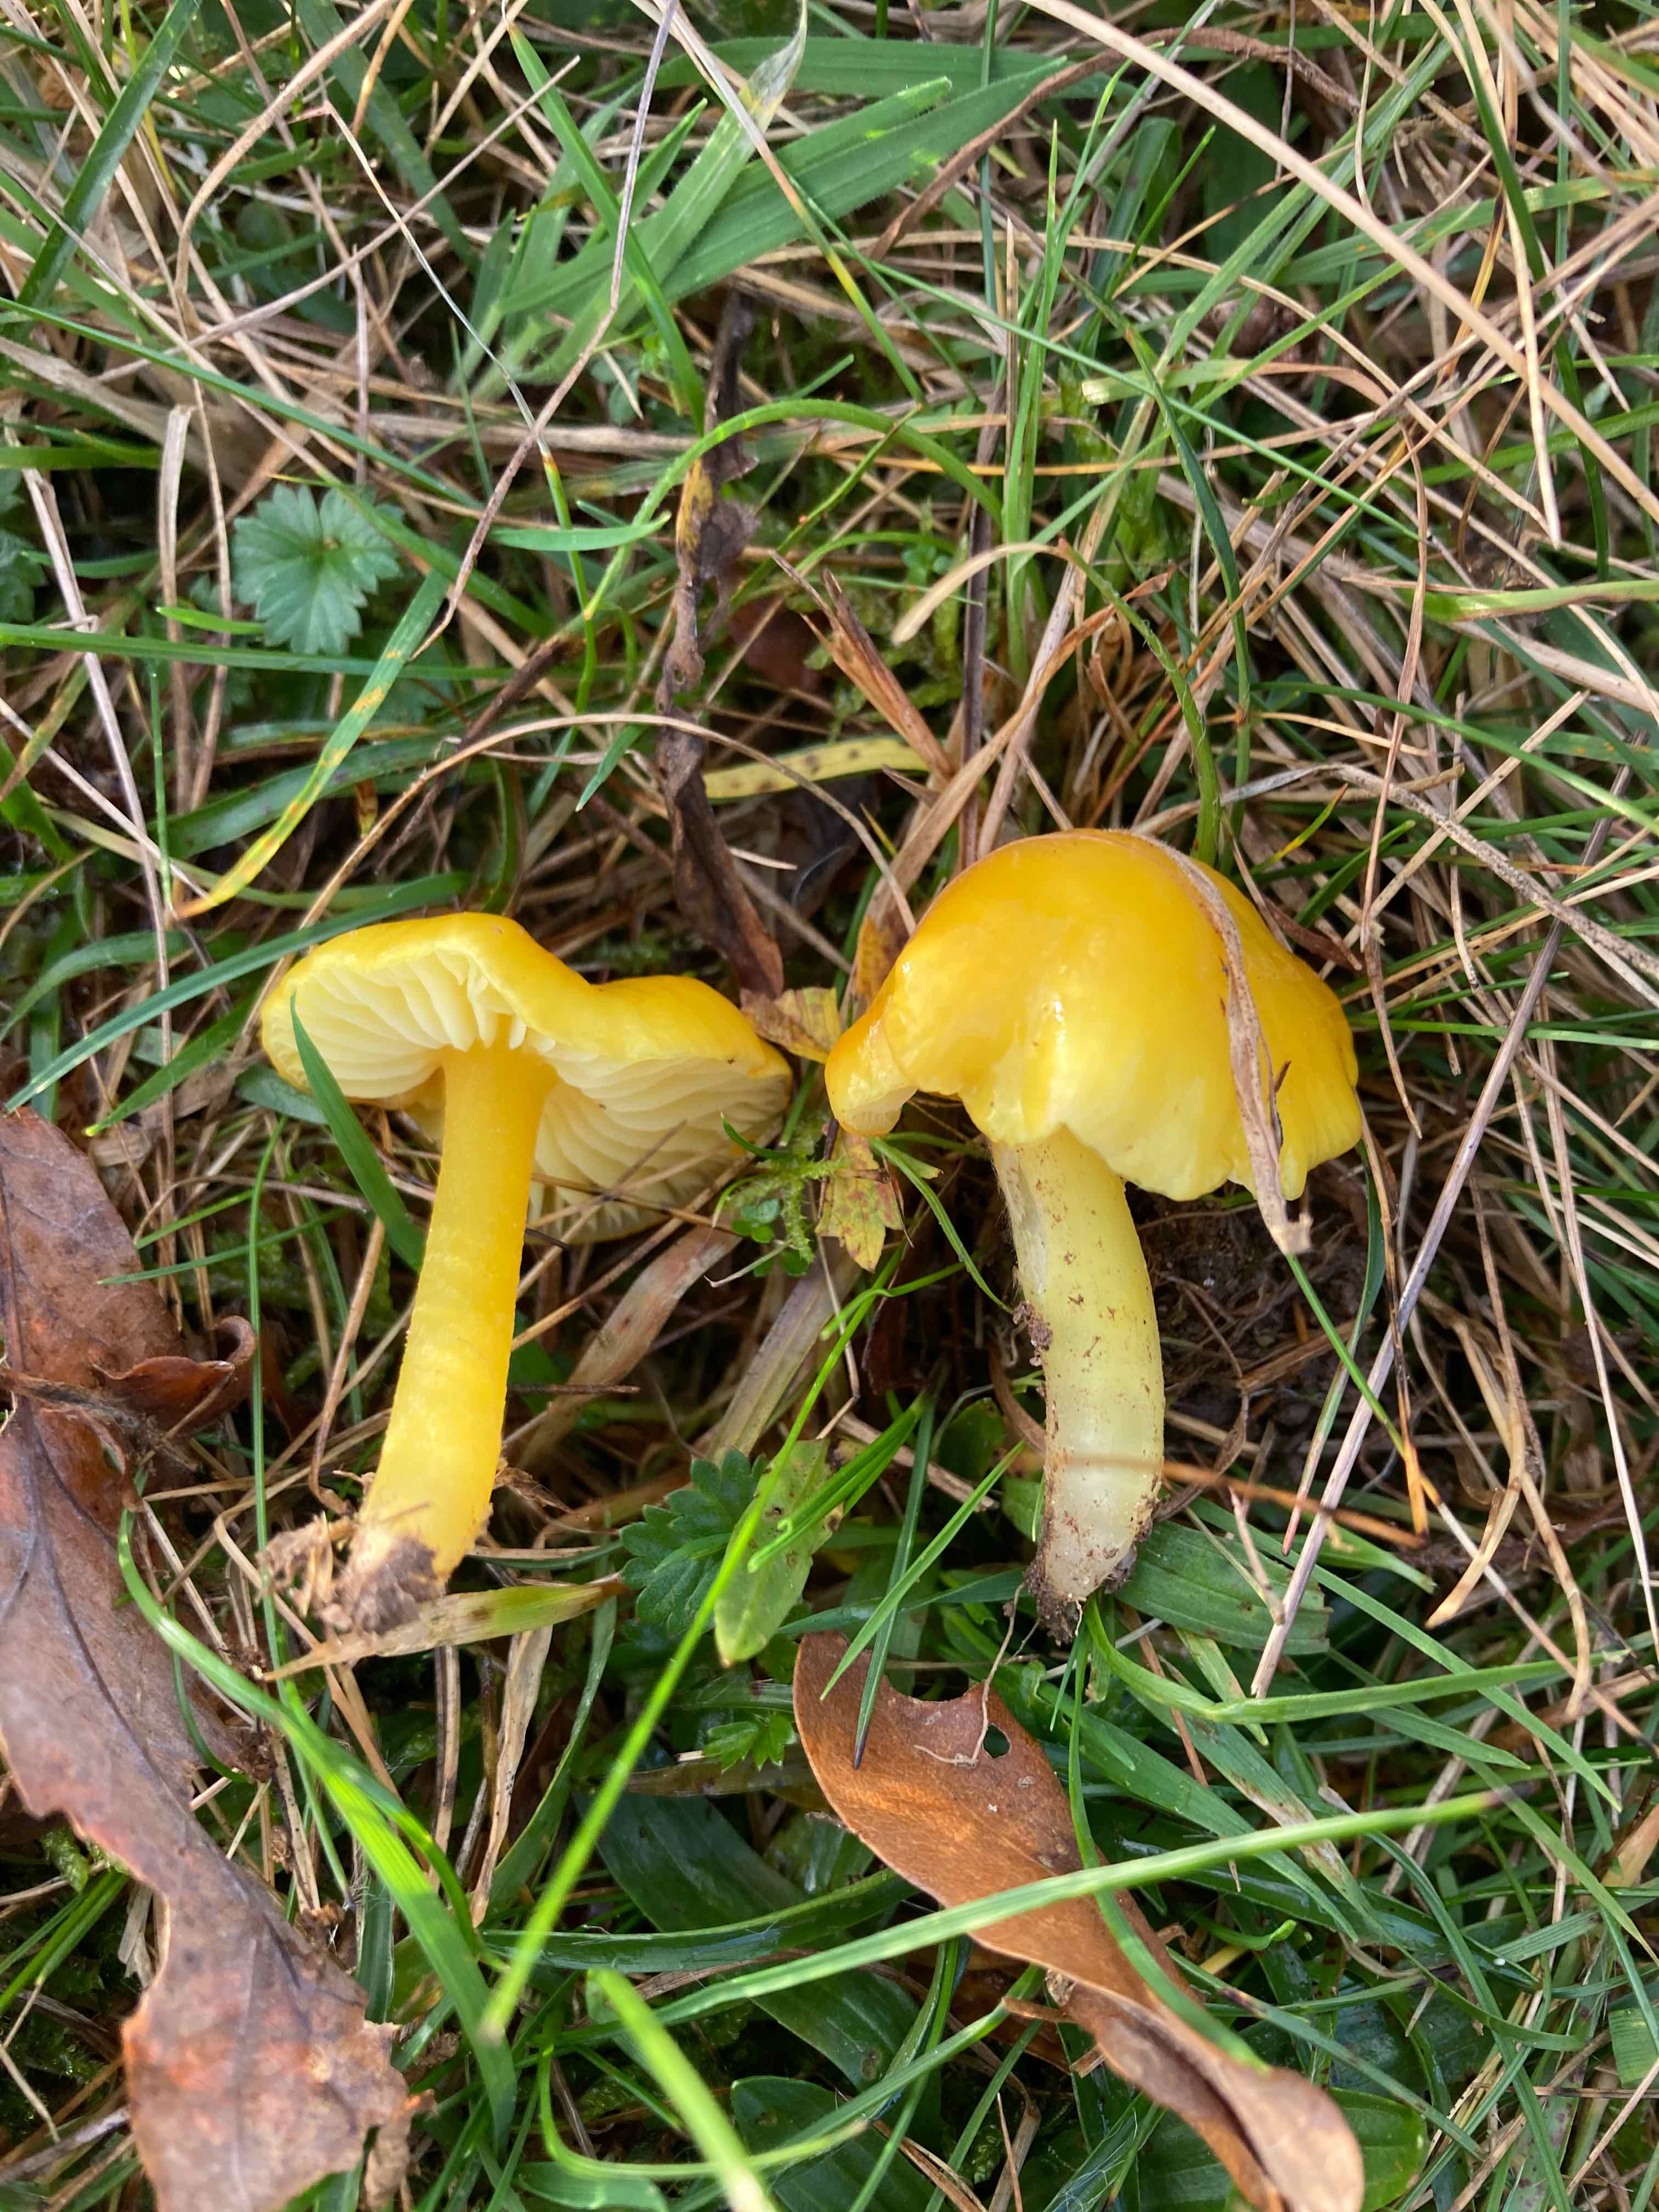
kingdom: Fungi
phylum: Basidiomycota
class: Agaricomycetes
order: Agaricales
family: Hygrophoraceae
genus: Hygrocybe
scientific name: Hygrocybe chlorophana
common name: gul vokshat
